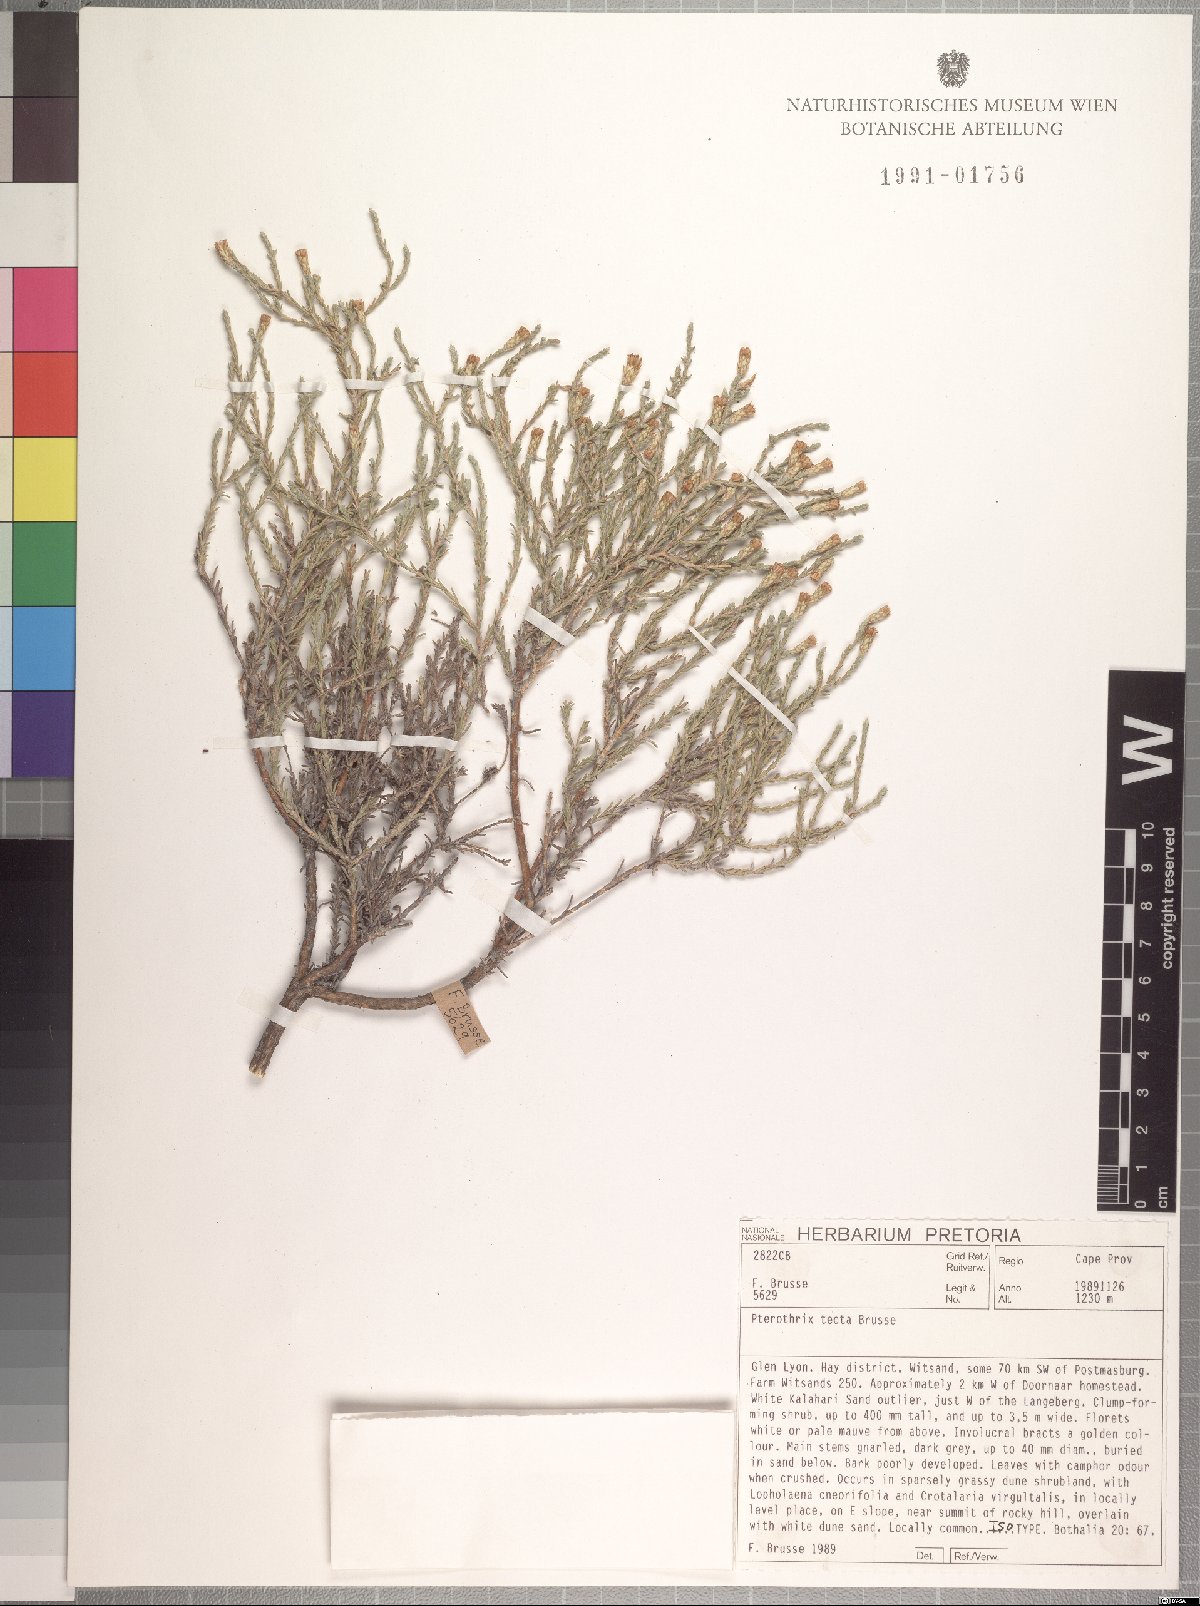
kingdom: Plantae
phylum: Tracheophyta
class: Magnoliopsida
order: Asterales
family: Asteraceae
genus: Amphiglossa
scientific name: Amphiglossa tecta
